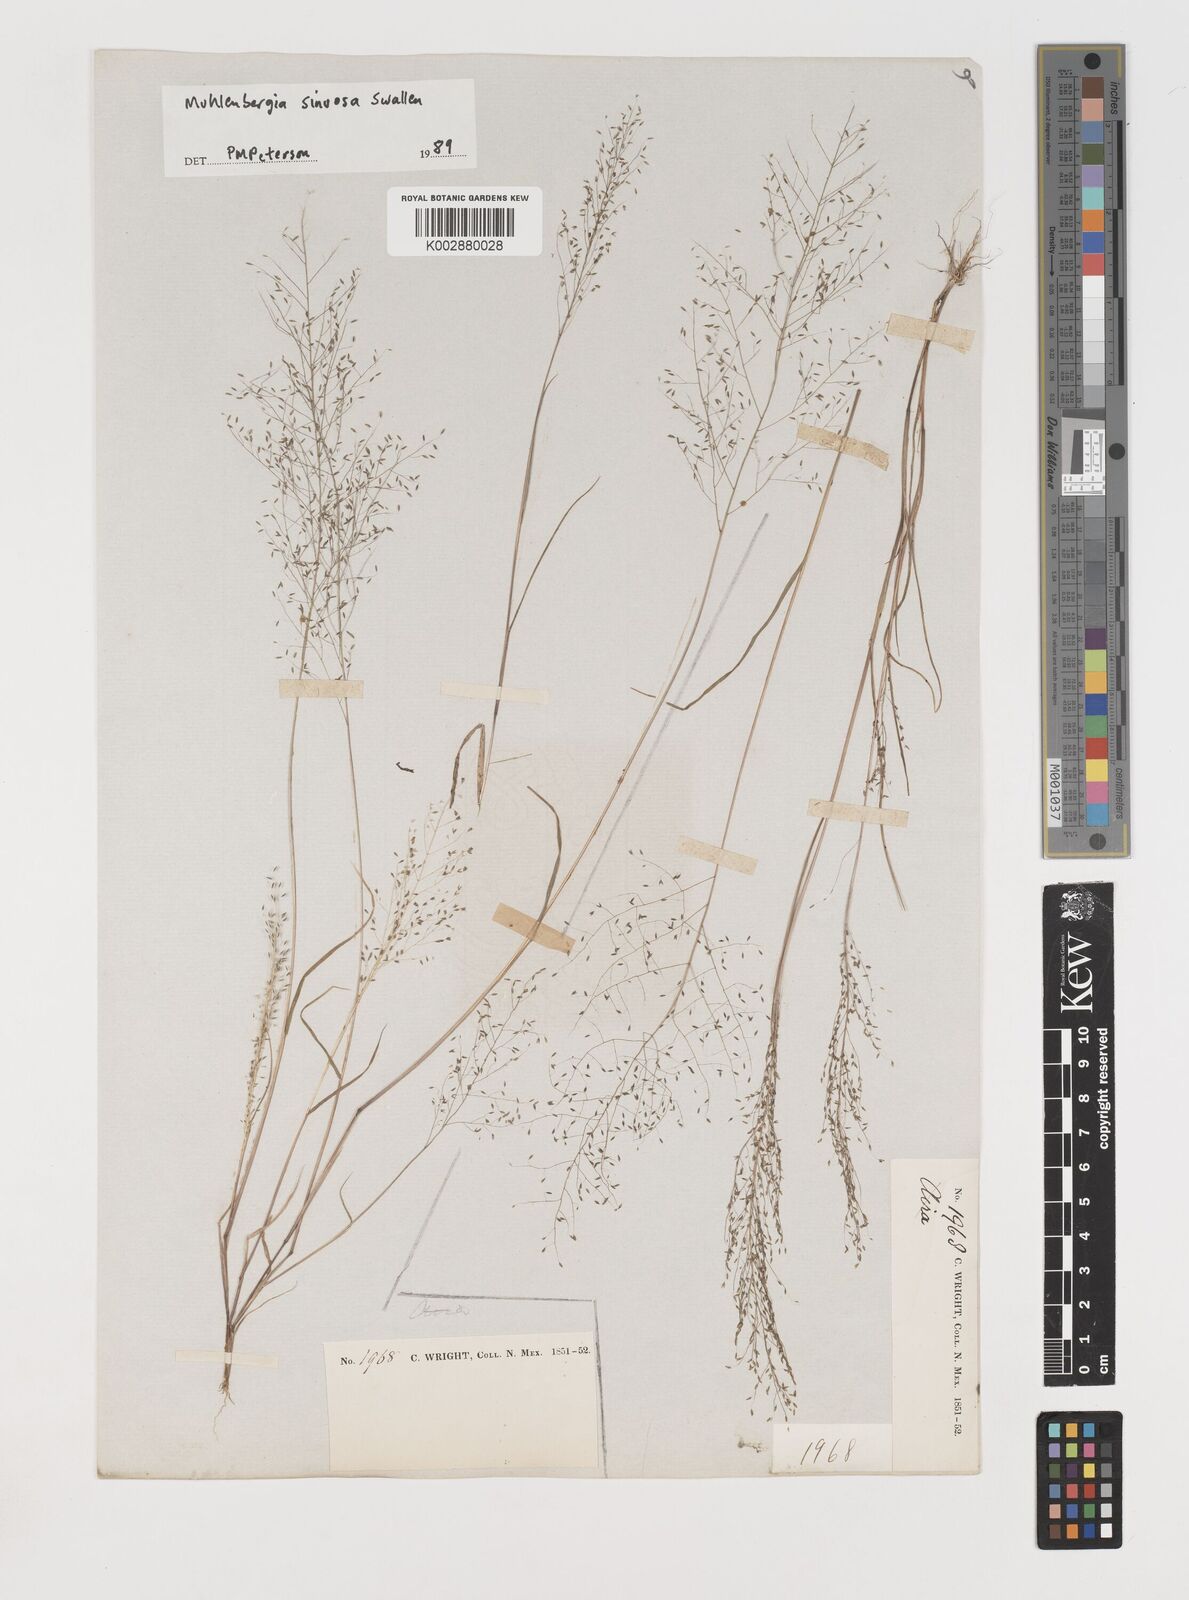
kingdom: Plantae
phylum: Tracheophyta
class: Liliopsida
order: Poales
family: Poaceae
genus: Muhlenbergia
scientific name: Muhlenbergia sinuosa
